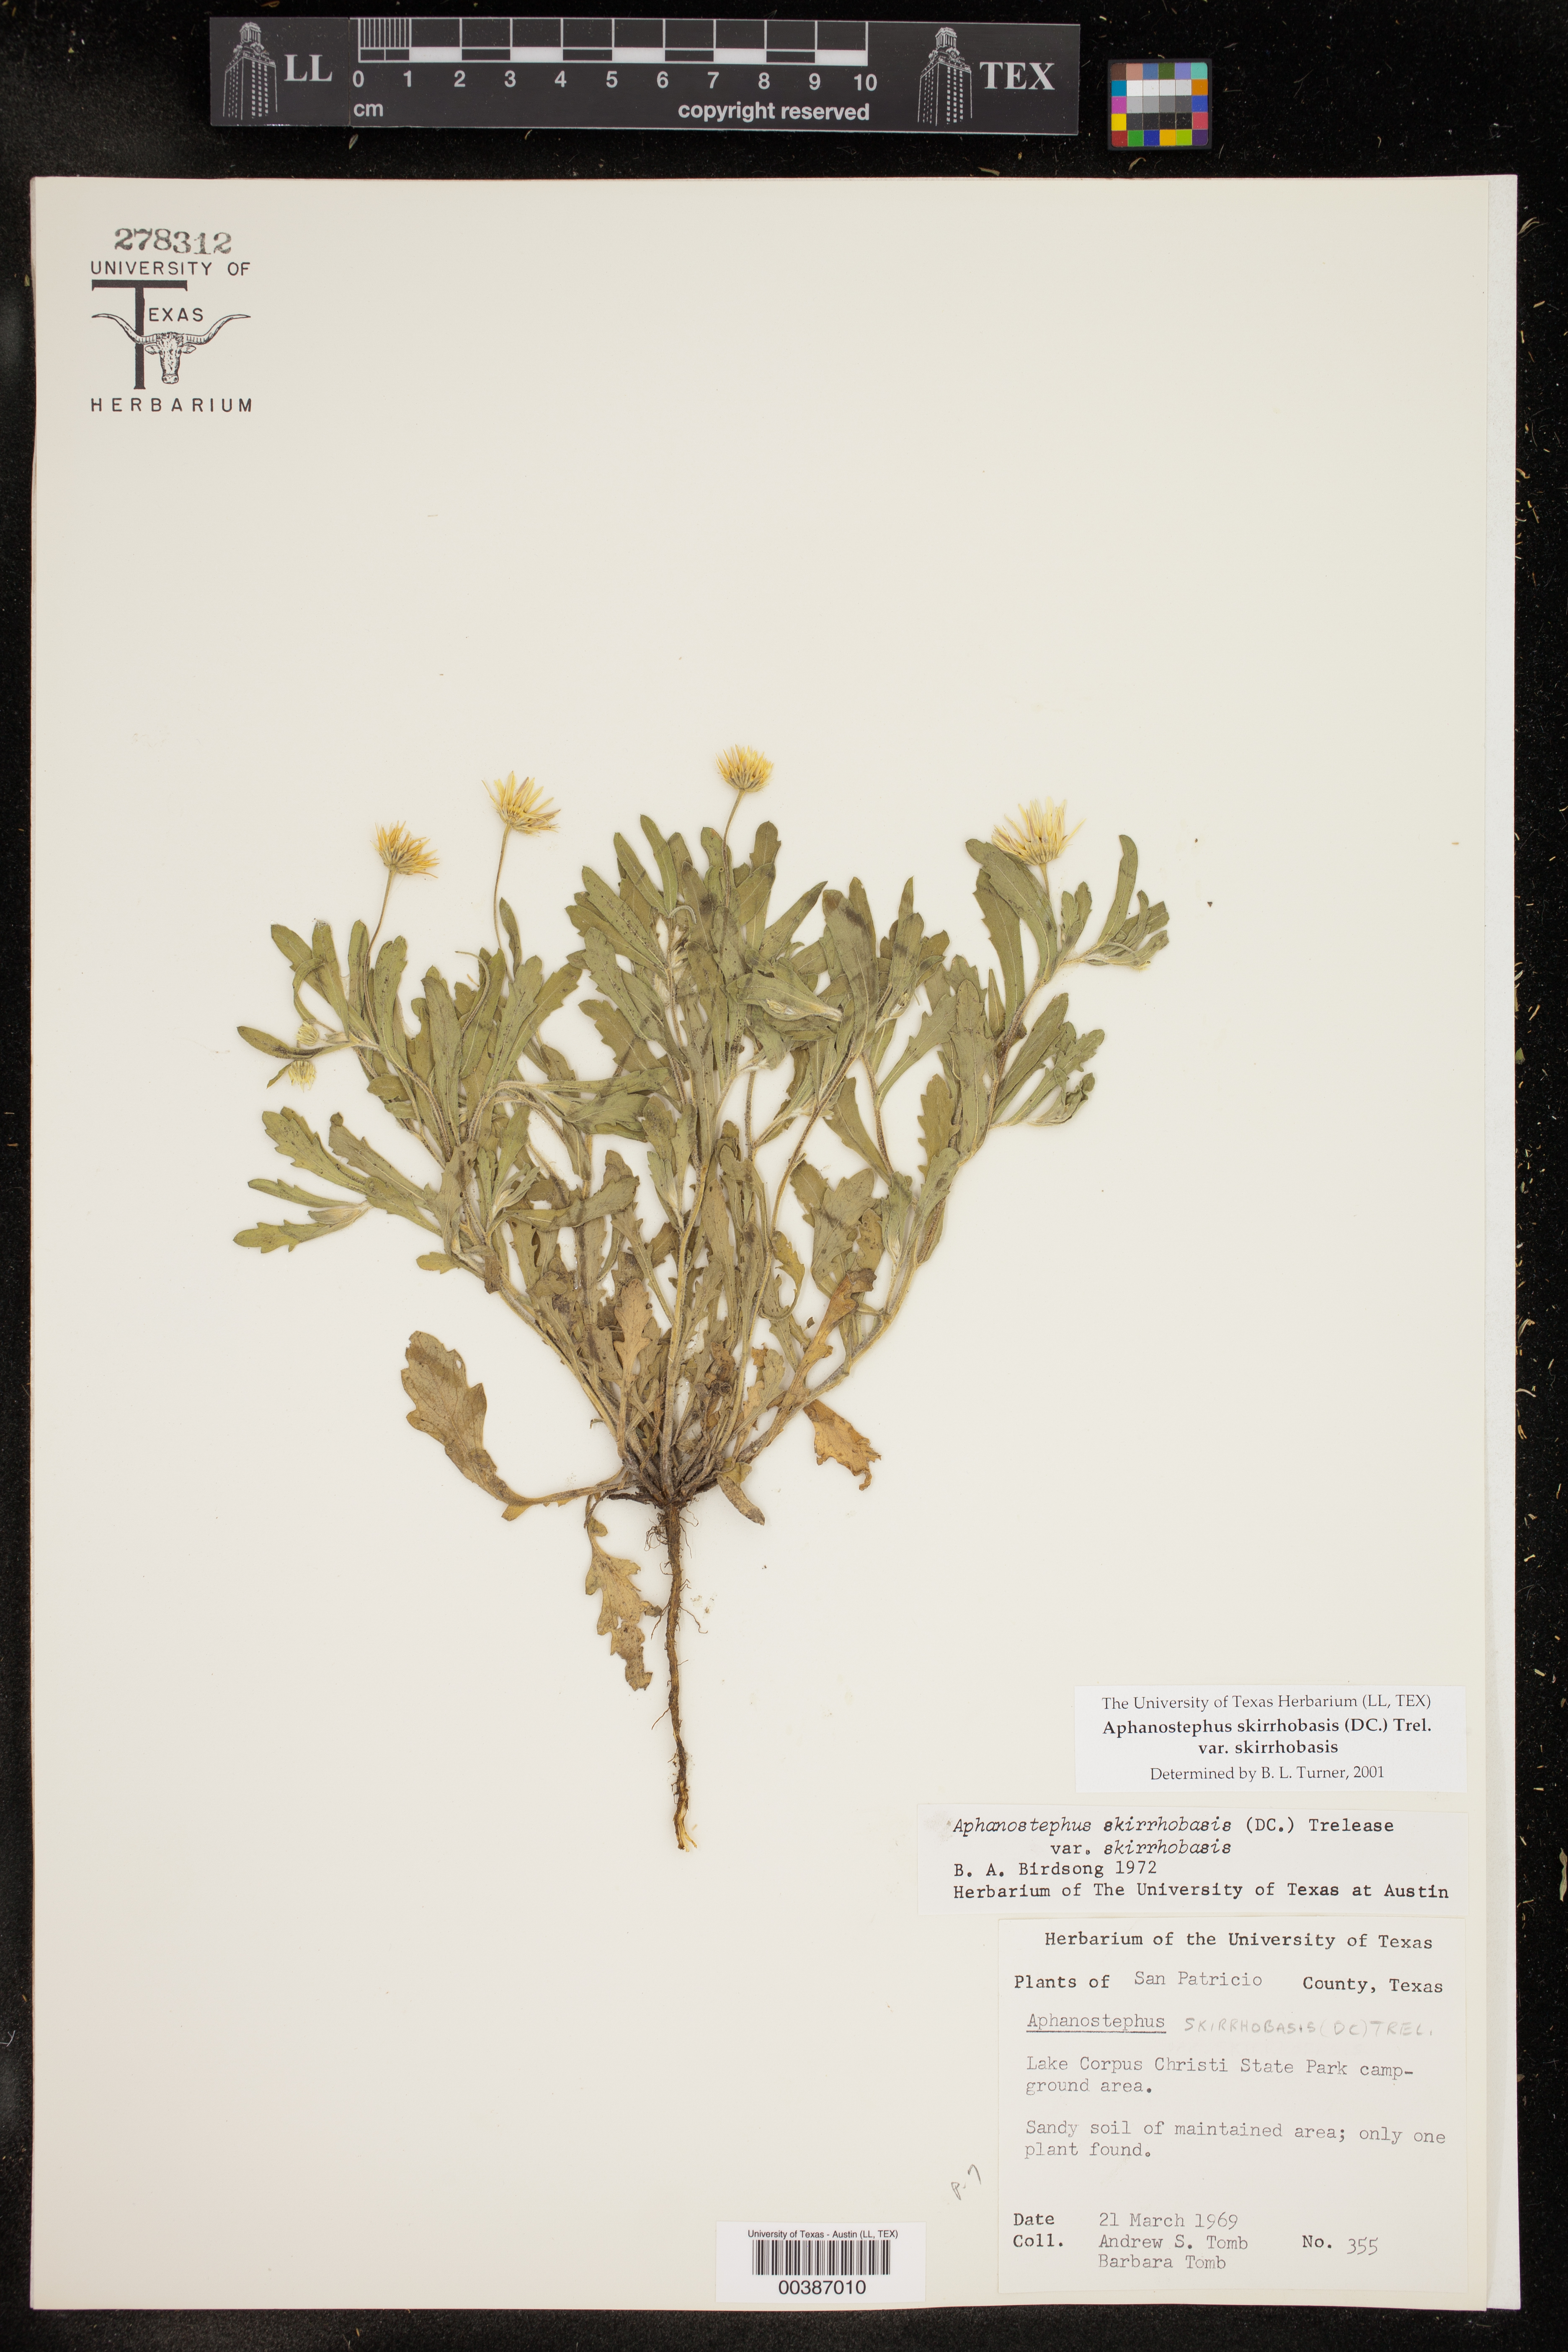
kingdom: Plantae
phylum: Tracheophyta
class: Magnoliopsida
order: Asterales
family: Asteraceae
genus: Aphanostephus
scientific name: Aphanostephus skirrhobasis
